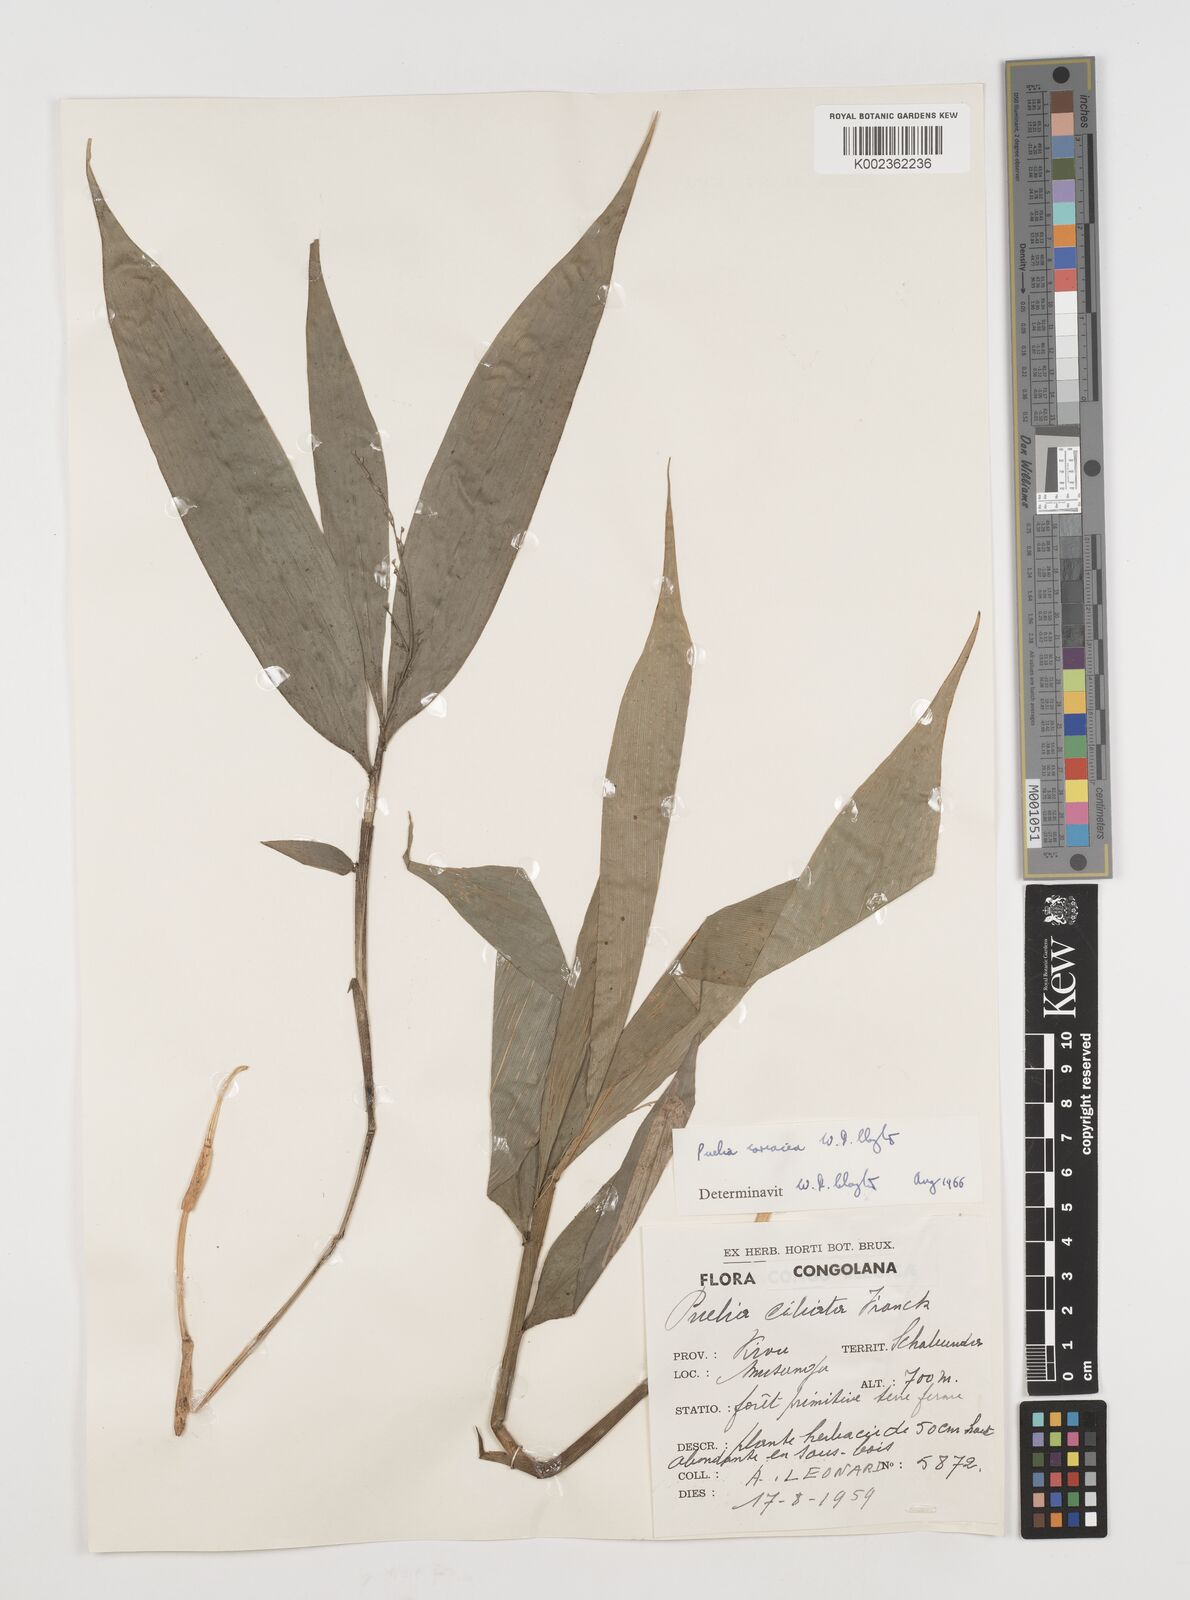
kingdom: Plantae
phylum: Tracheophyta
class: Liliopsida
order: Poales
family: Poaceae
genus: Puelia
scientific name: Puelia coriacea
